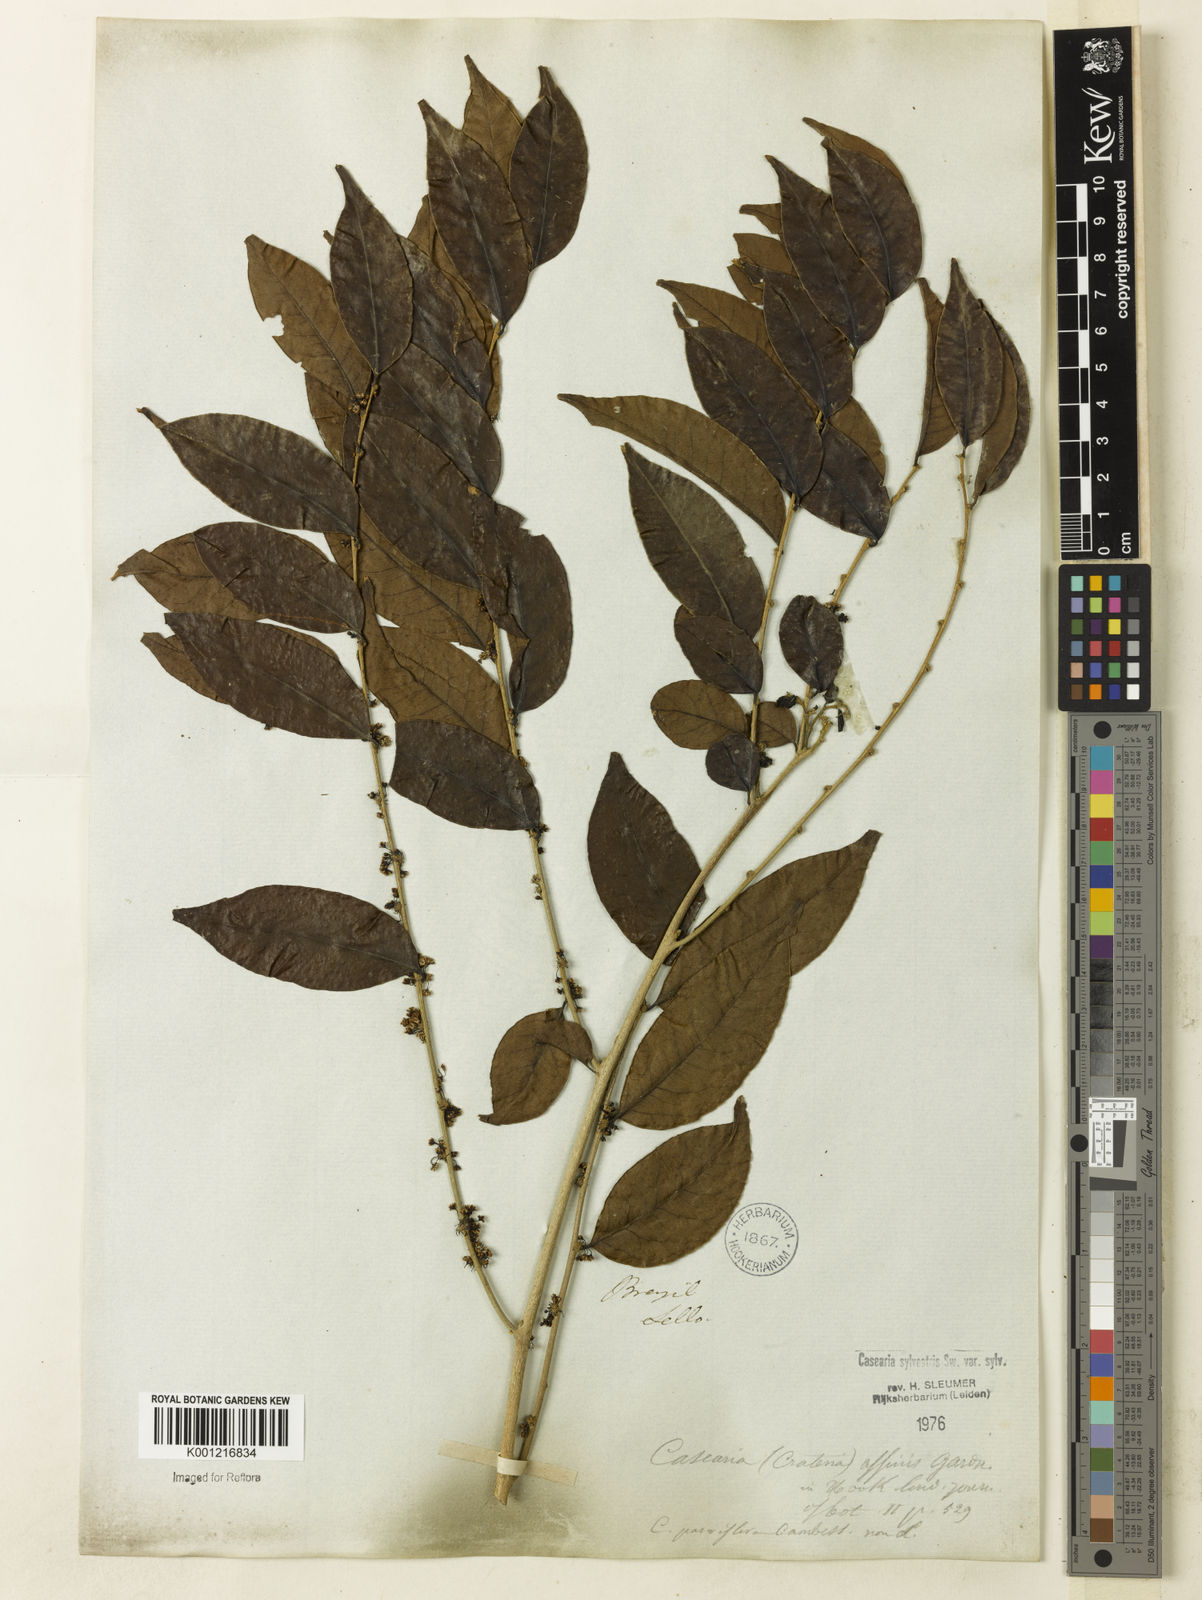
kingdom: Plantae
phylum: Tracheophyta
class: Magnoliopsida
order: Malpighiales
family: Salicaceae
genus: Casearia
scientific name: Casearia sylvestris
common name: Wild sage
